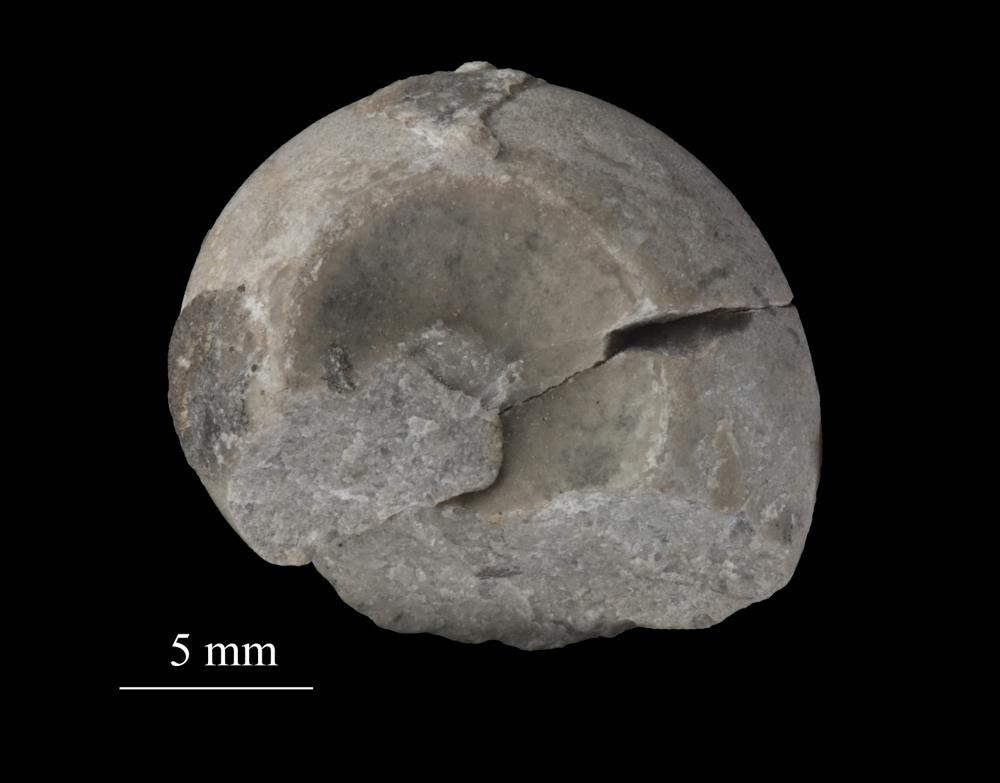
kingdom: Animalia
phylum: Mollusca
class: Gastropoda
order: Neogastropoda
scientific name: Neogastropoda
